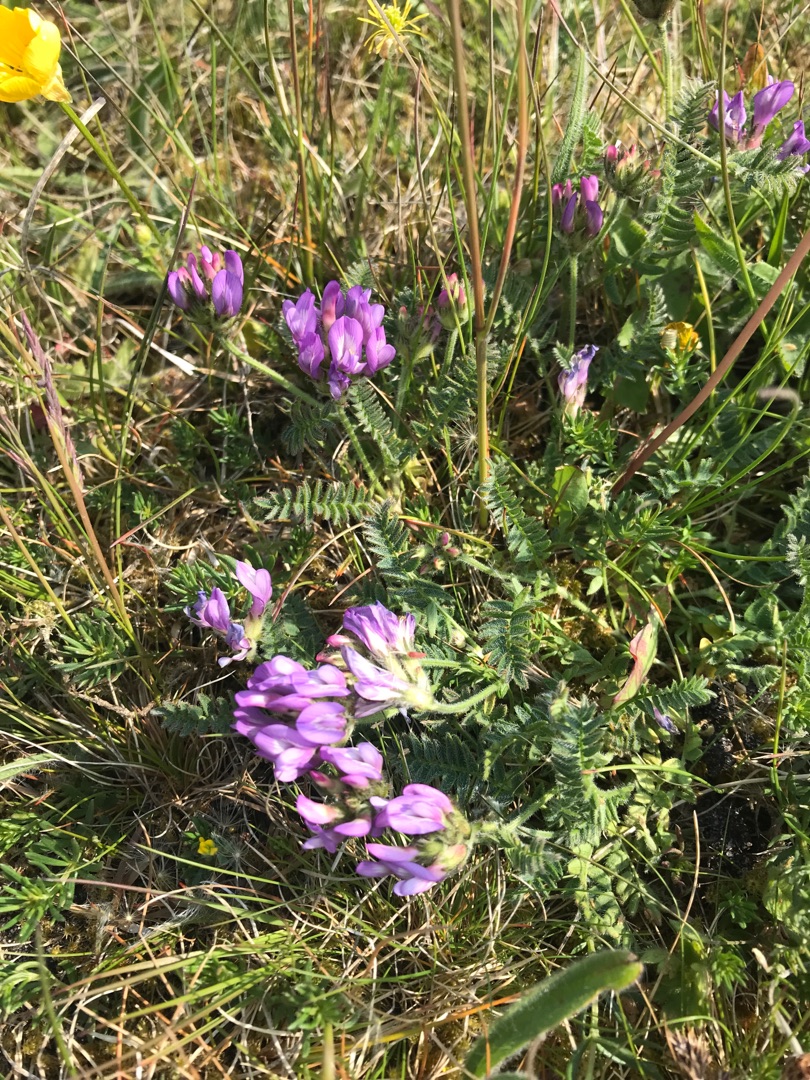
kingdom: Plantae
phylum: Tracheophyta
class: Magnoliopsida
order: Fabales
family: Fabaceae
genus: Astragalus
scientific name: Astragalus danicus
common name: Dansk astragel
